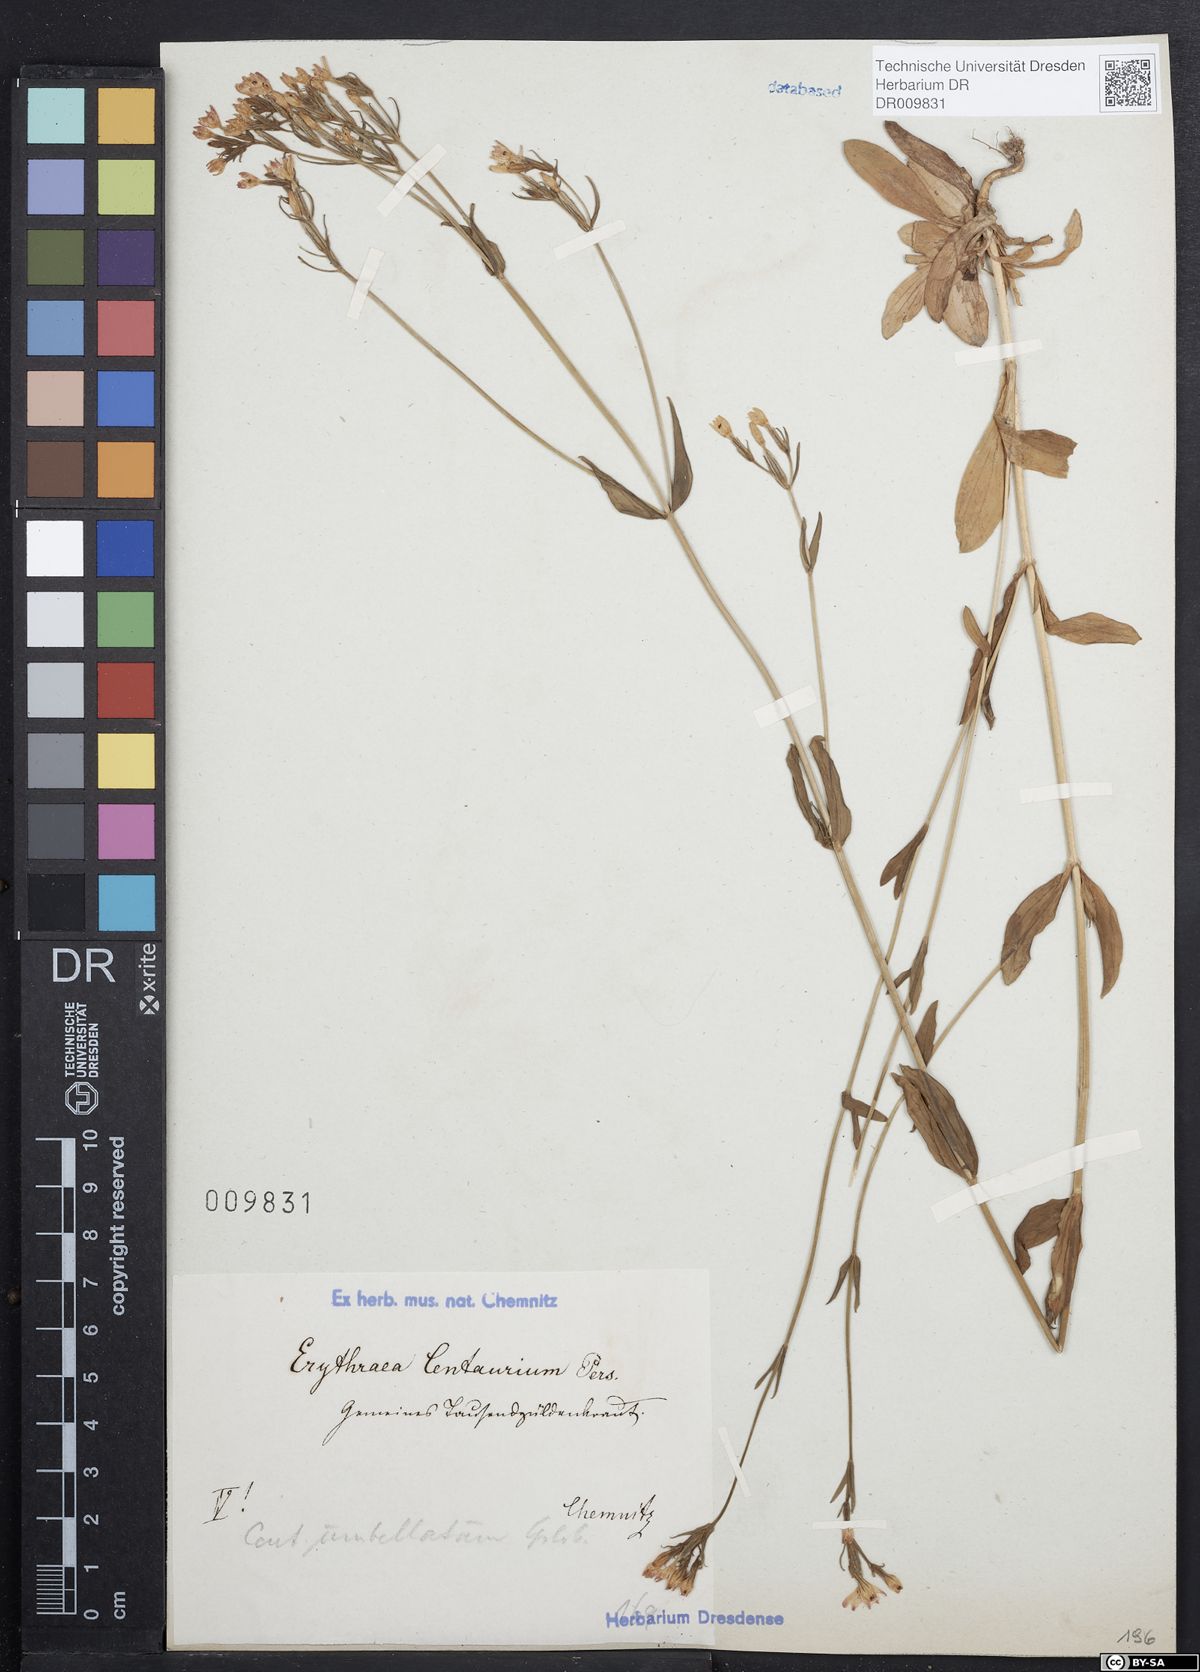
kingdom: Plantae
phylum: Tracheophyta
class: Magnoliopsida
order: Gentianales
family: Gentianaceae
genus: Centaurium
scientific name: Centaurium erythraea
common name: Common centaury
